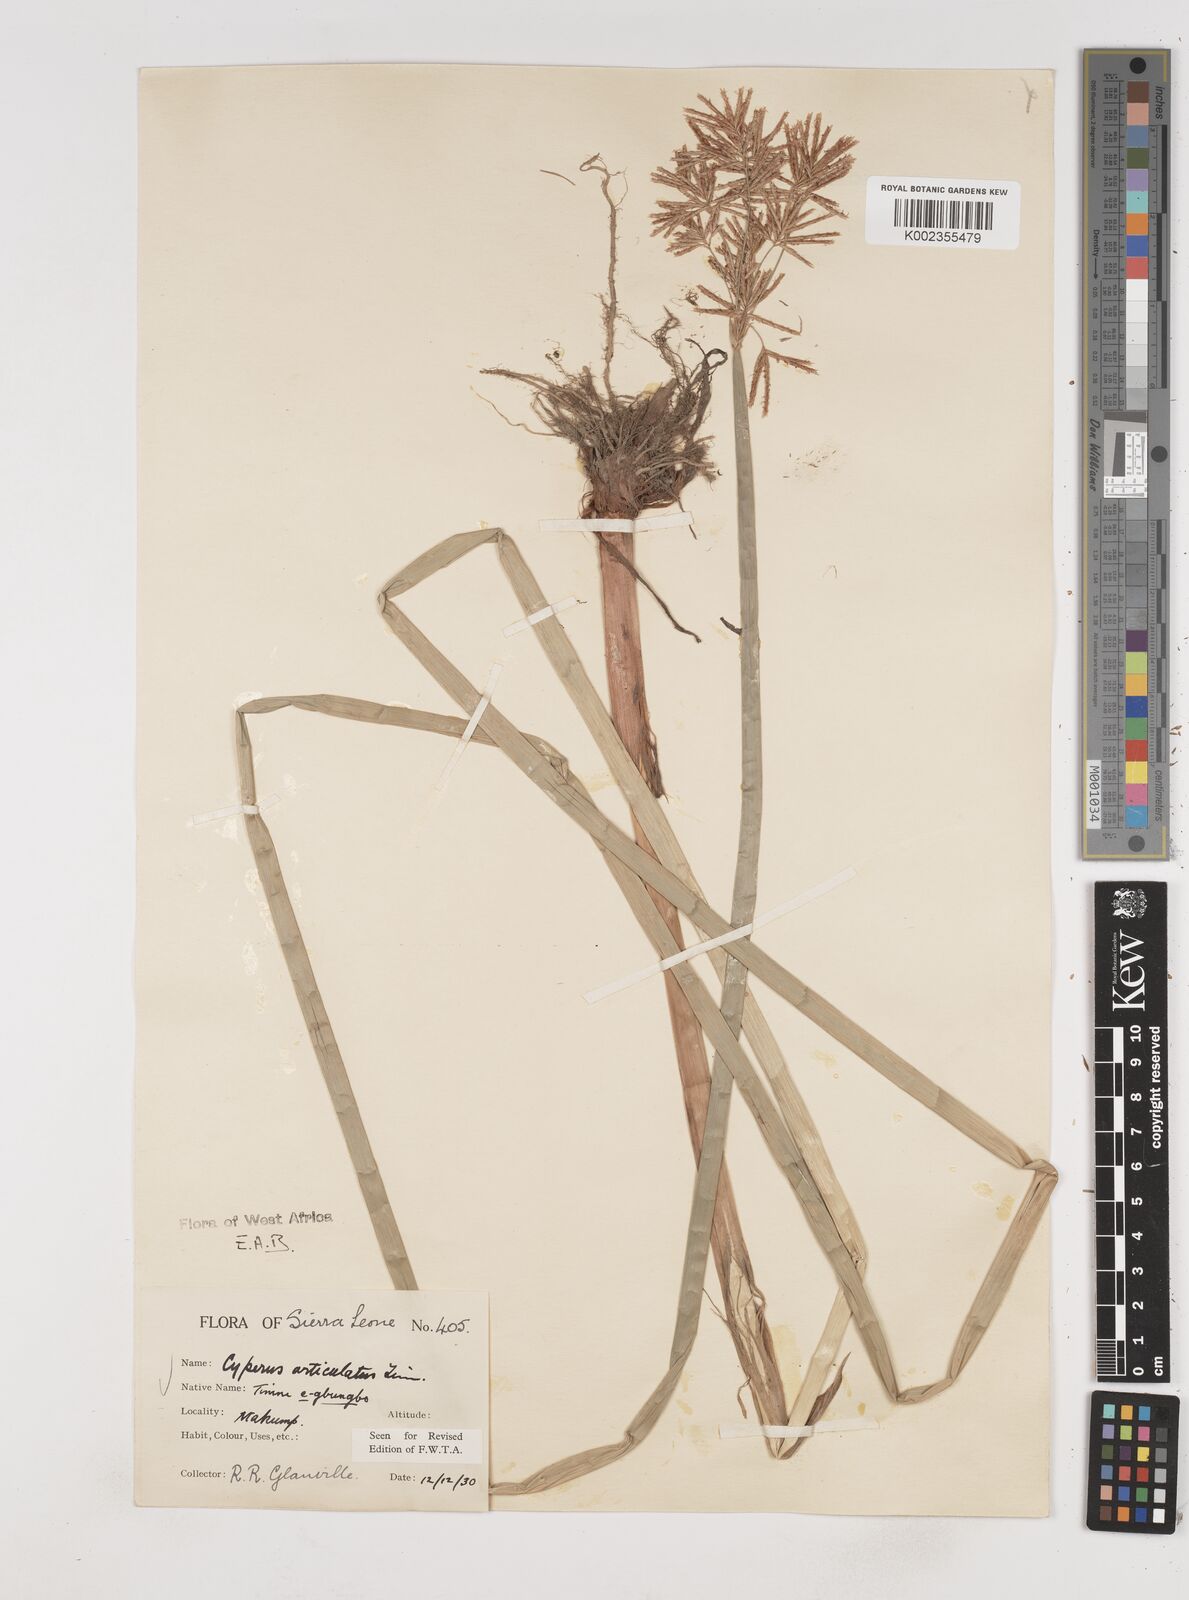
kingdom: Plantae
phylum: Tracheophyta
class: Liliopsida
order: Poales
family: Cyperaceae
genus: Cyperus
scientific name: Cyperus articulatus
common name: Jointed flatsedge
